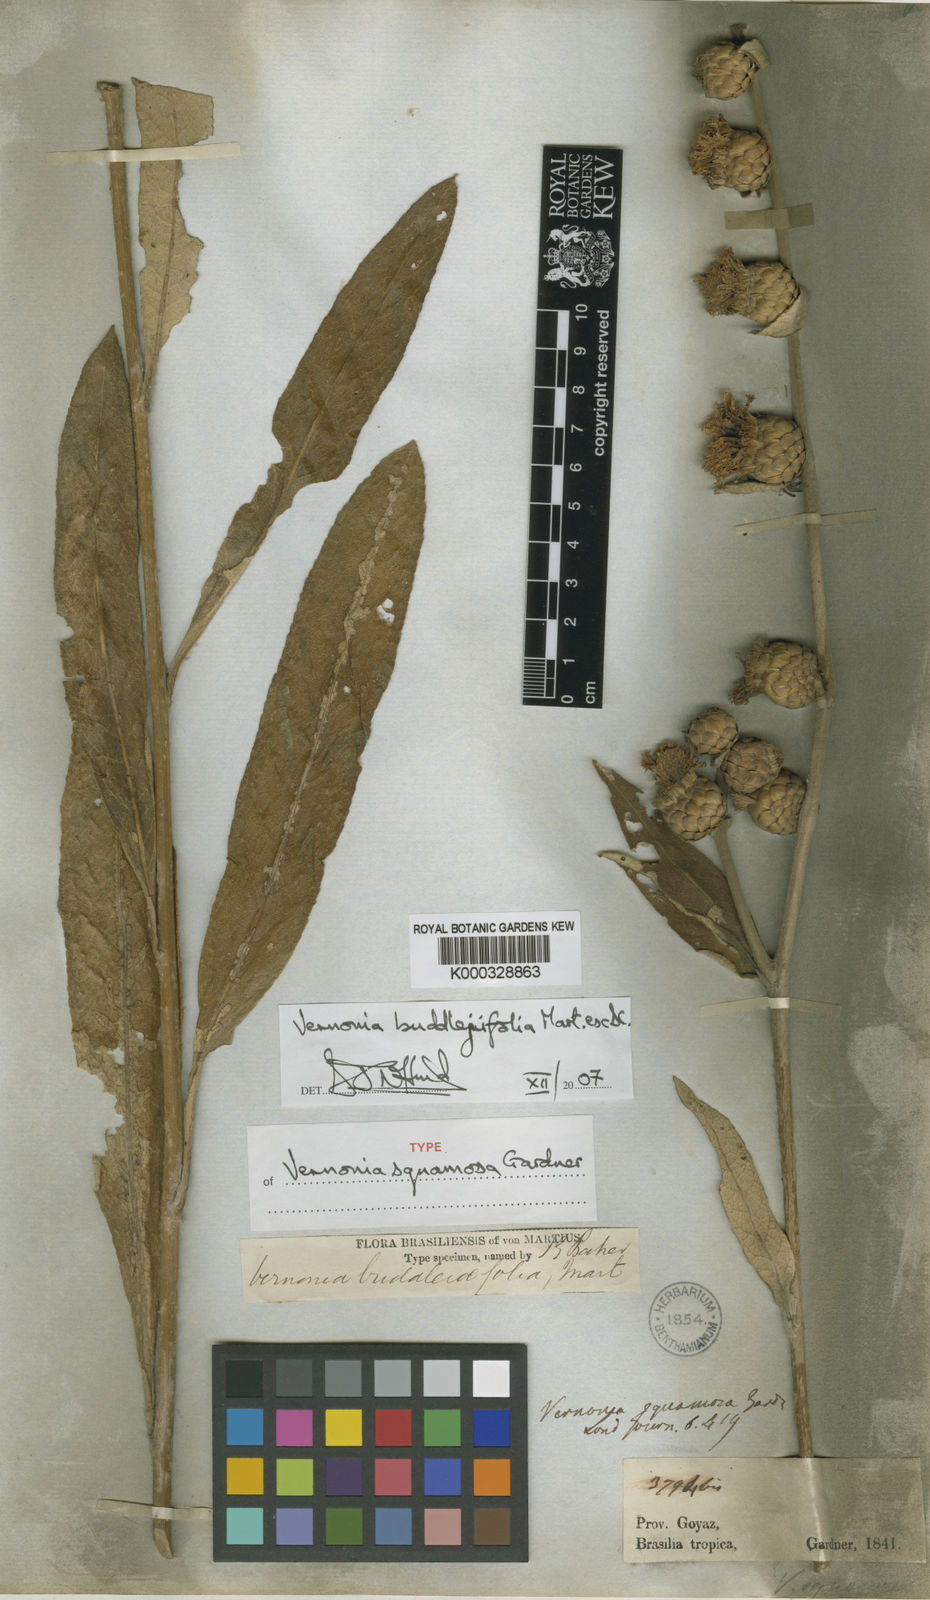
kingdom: Plantae
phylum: Tracheophyta
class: Magnoliopsida
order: Asterales
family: Asteraceae
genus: Vernonia
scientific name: Vernonia
